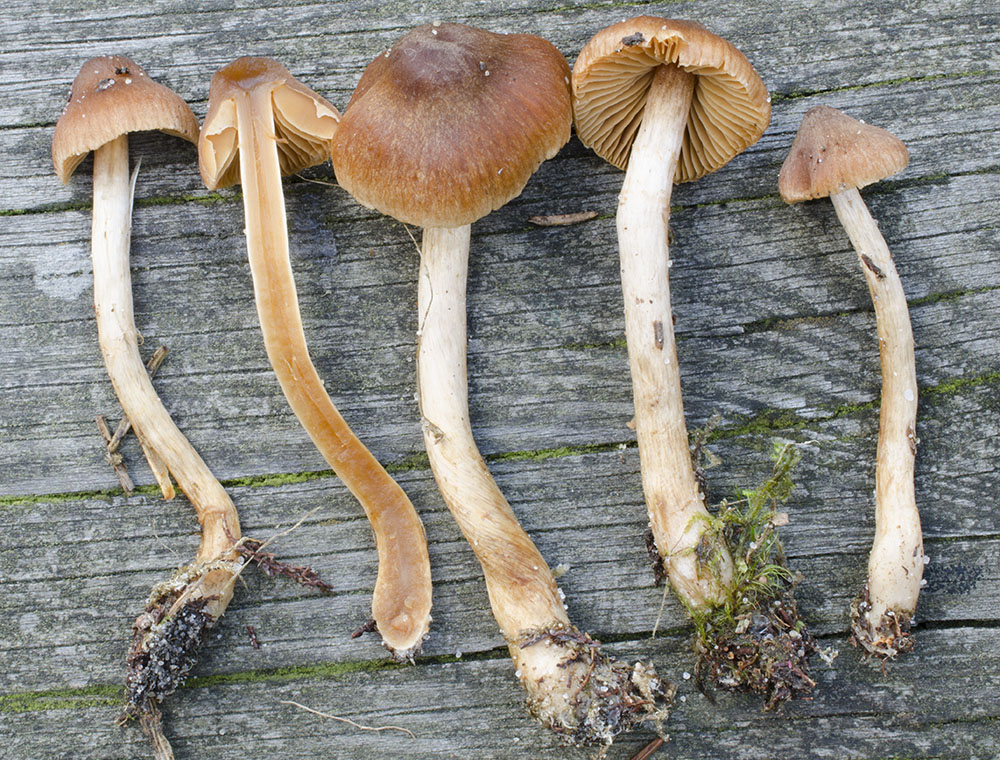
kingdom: Fungi
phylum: Basidiomycota
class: Agaricomycetes
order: Agaricales
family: Cortinariaceae
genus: Cortinarius
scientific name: Cortinarius detonsus
